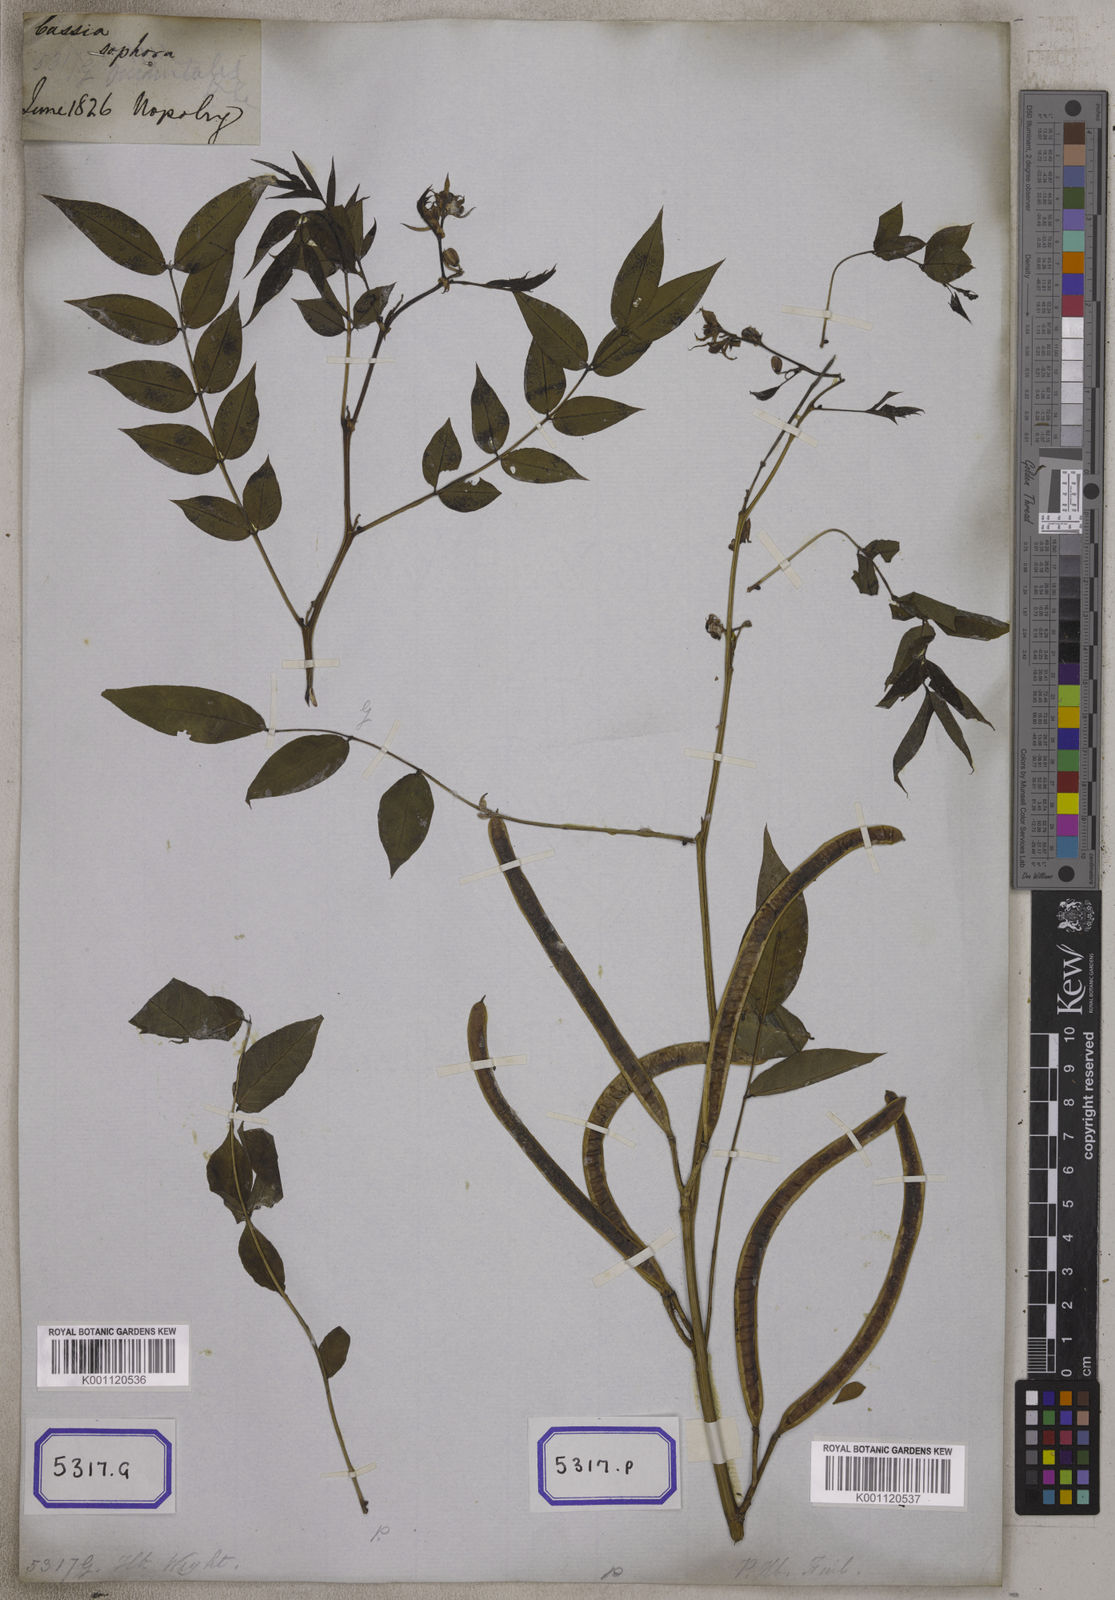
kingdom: Plantae
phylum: Tracheophyta
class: Magnoliopsida
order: Fabales
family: Fabaceae
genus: Cassia
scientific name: Cassia
